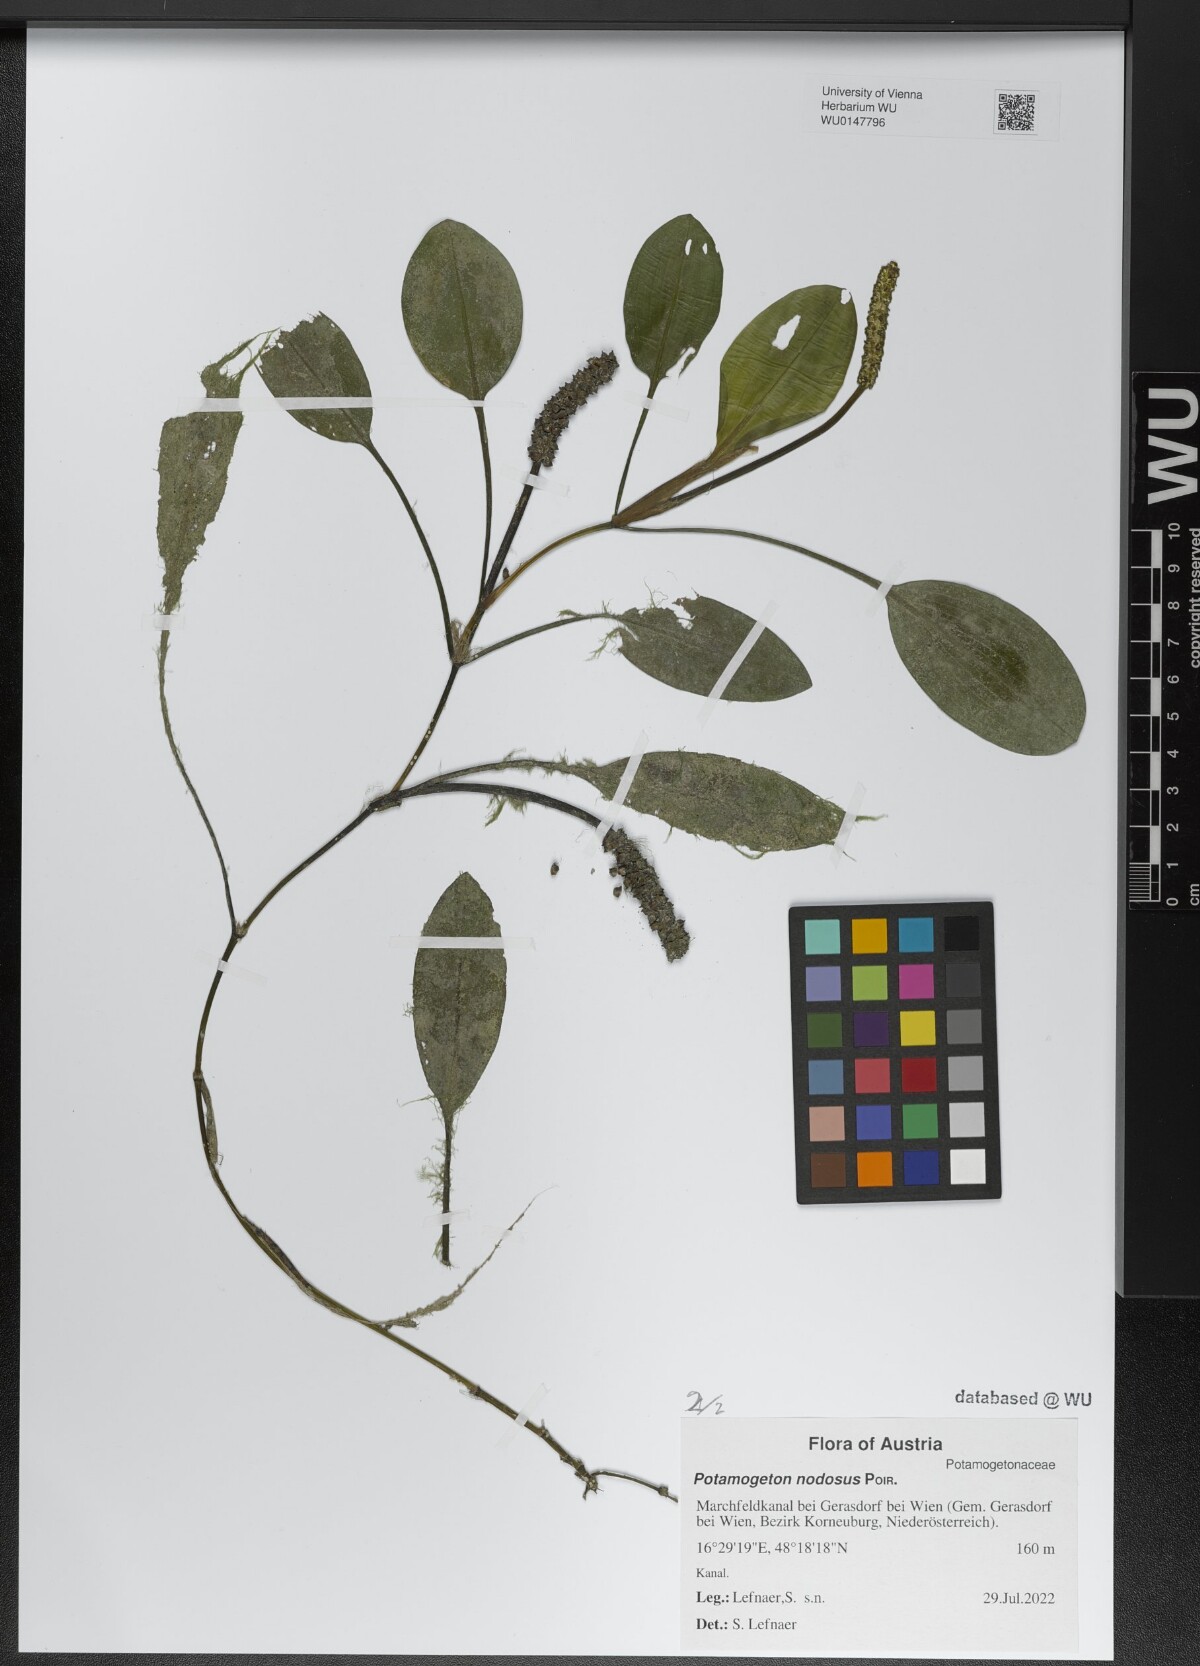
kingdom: Plantae
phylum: Tracheophyta
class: Liliopsida
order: Alismatales
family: Potamogetonaceae
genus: Potamogeton
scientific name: Potamogeton nodosus
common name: Loddon pondweed
